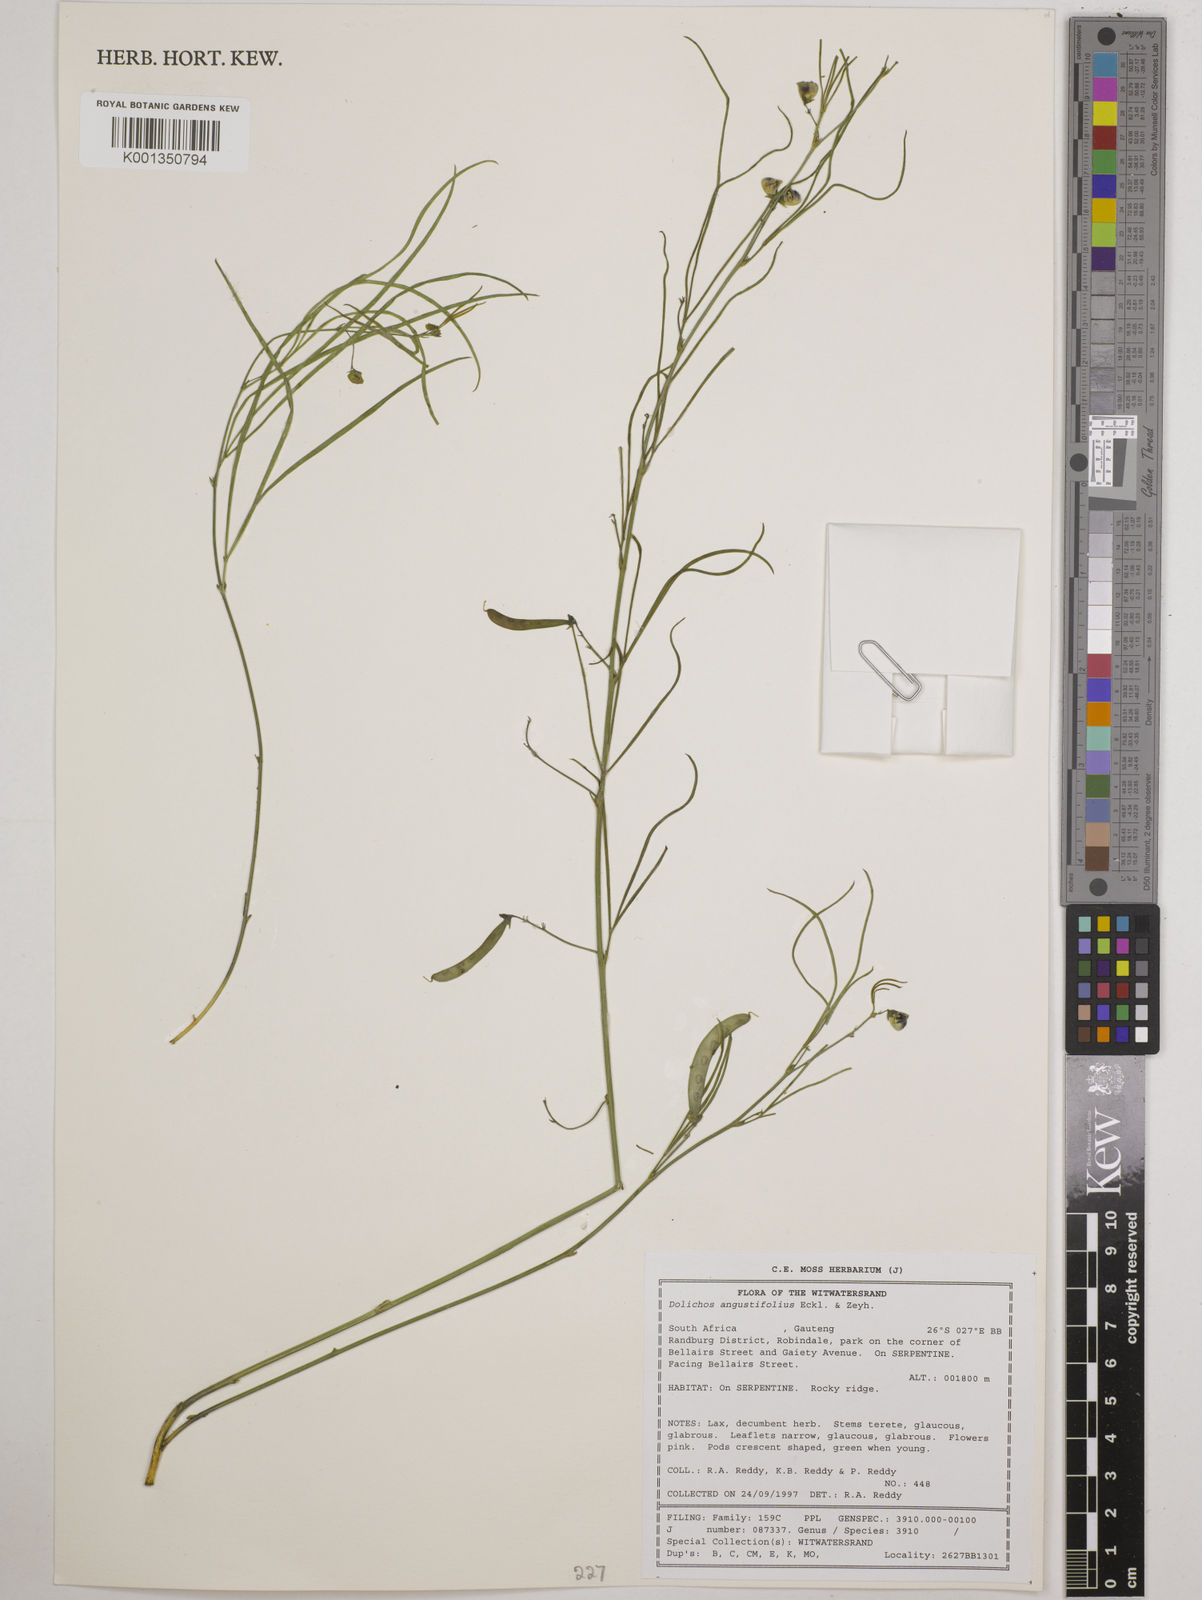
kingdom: Plantae
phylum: Tracheophyta
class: Magnoliopsida
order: Fabales
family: Fabaceae
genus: Dolichos
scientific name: Dolichos
